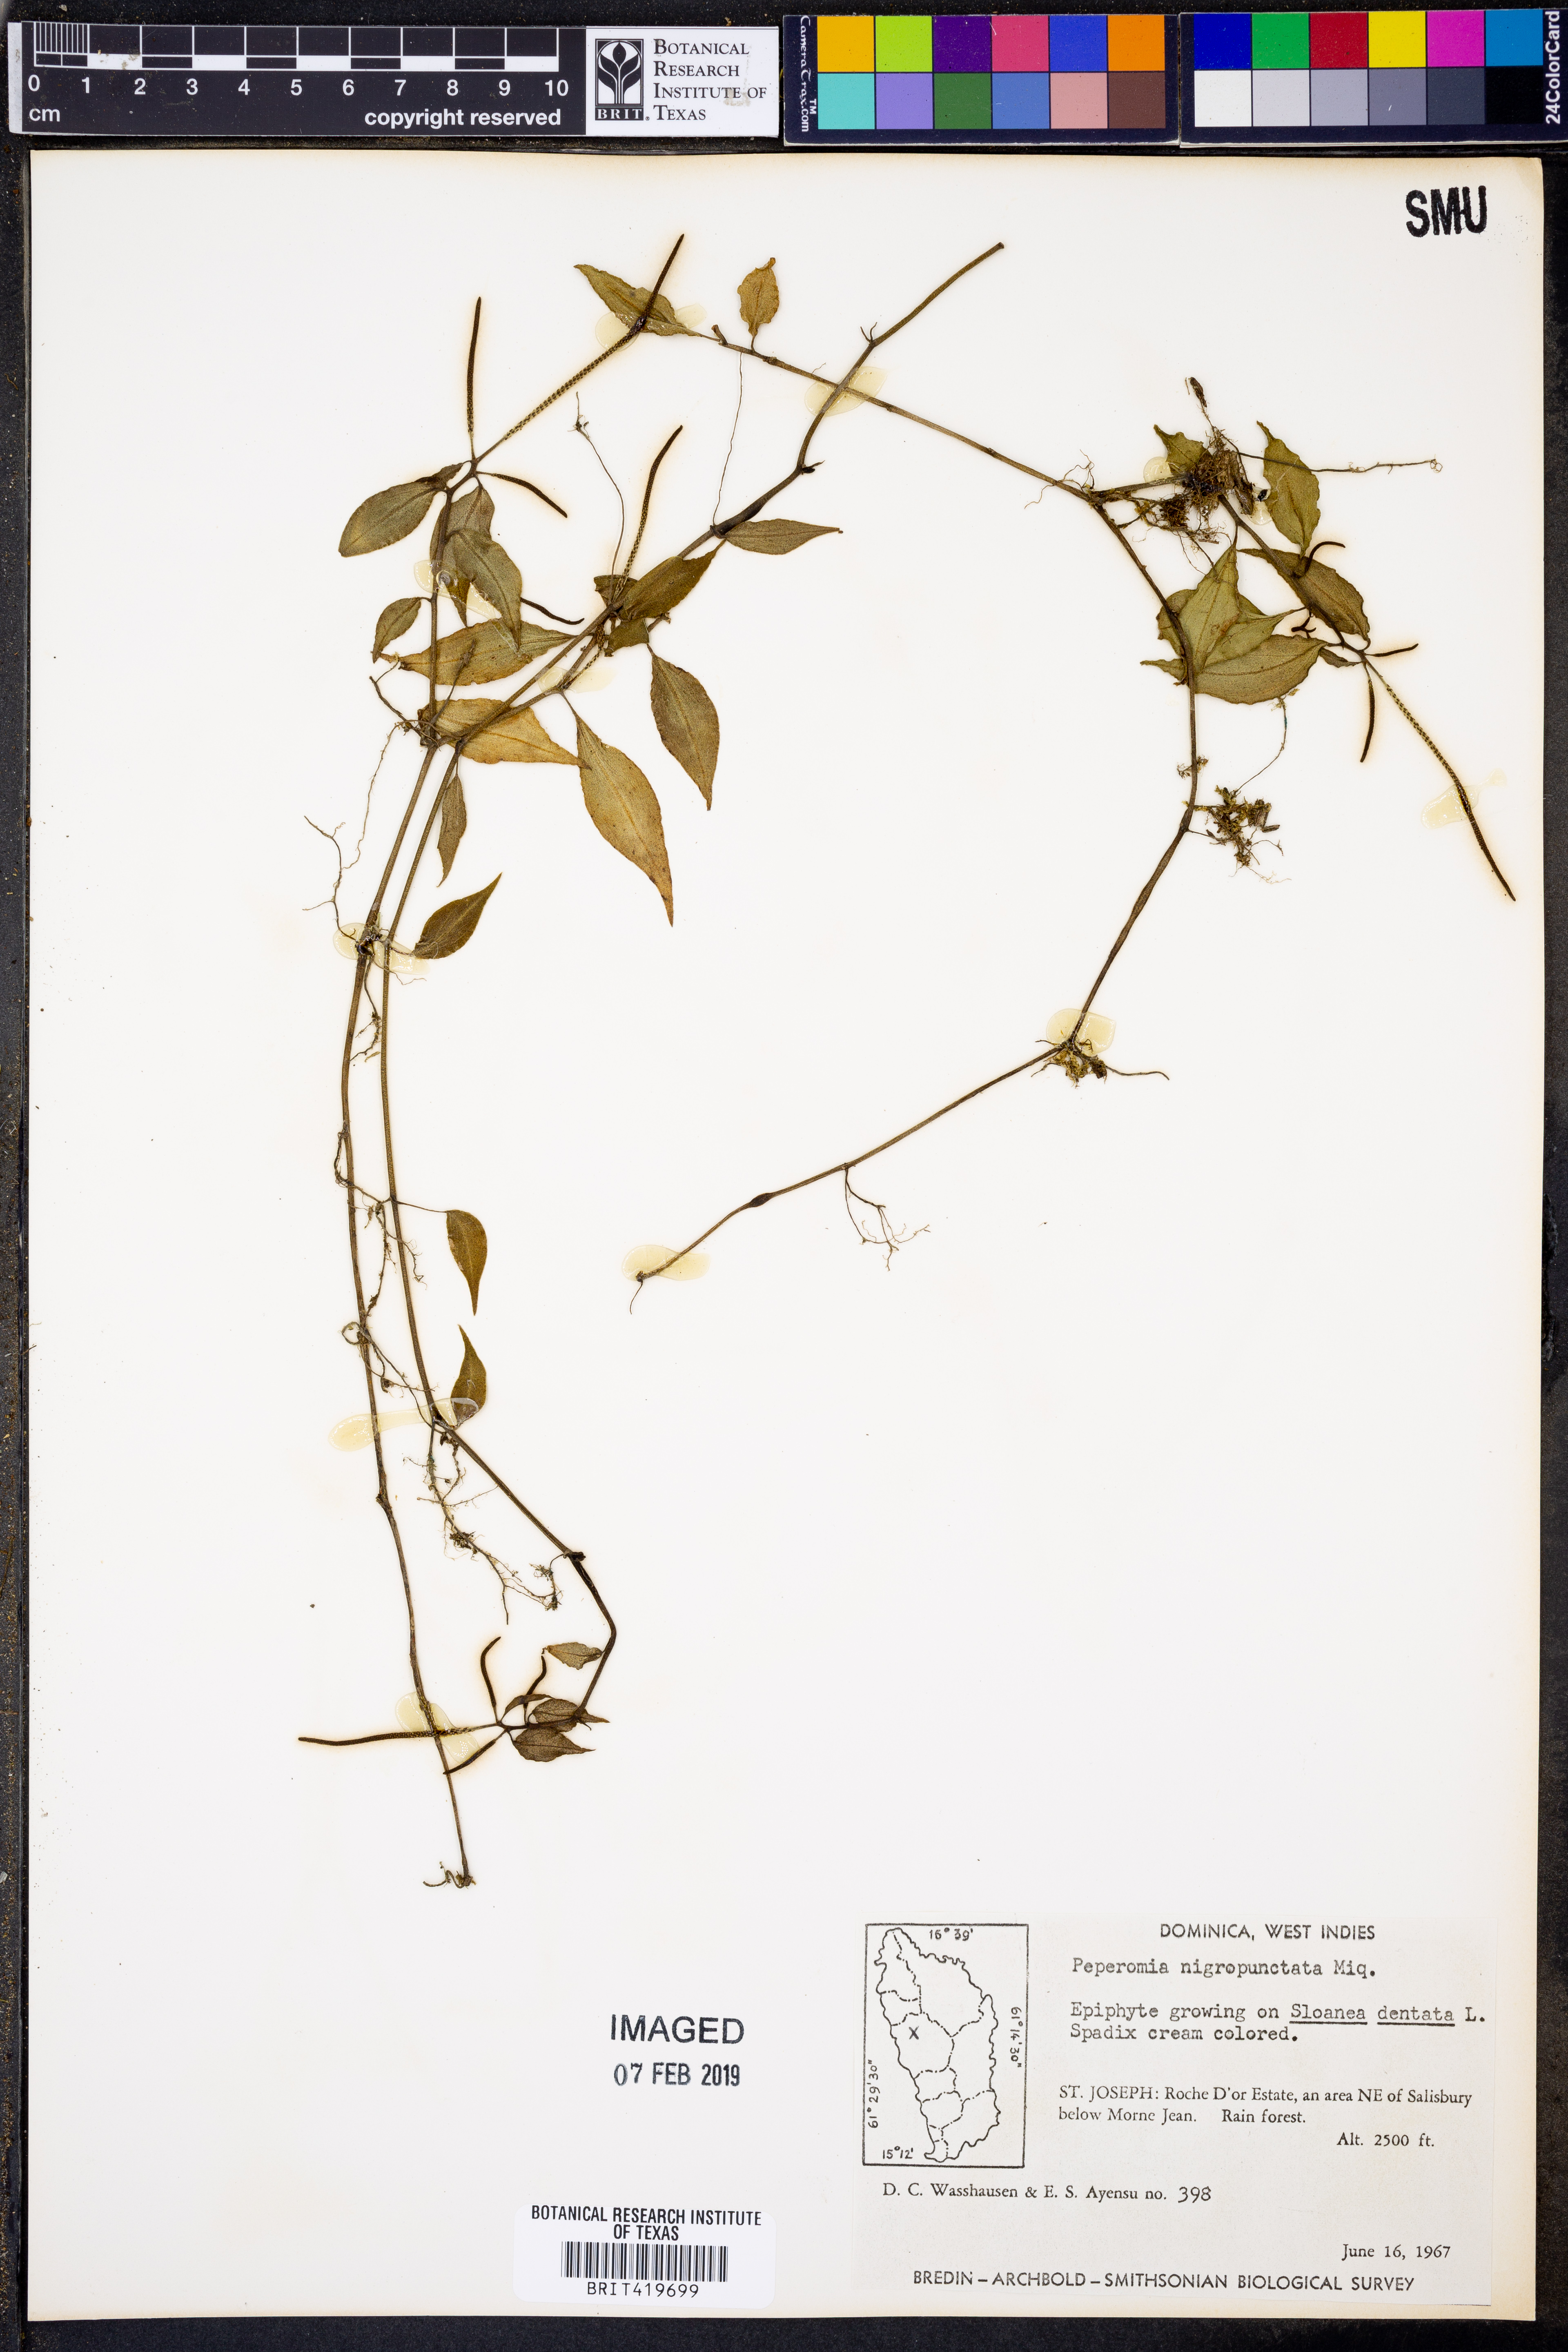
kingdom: Plantae
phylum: Tracheophyta
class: Magnoliopsida
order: Piperales
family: Piperaceae
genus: Peperomia
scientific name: Peperomia glabella
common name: Cypress peperomia
